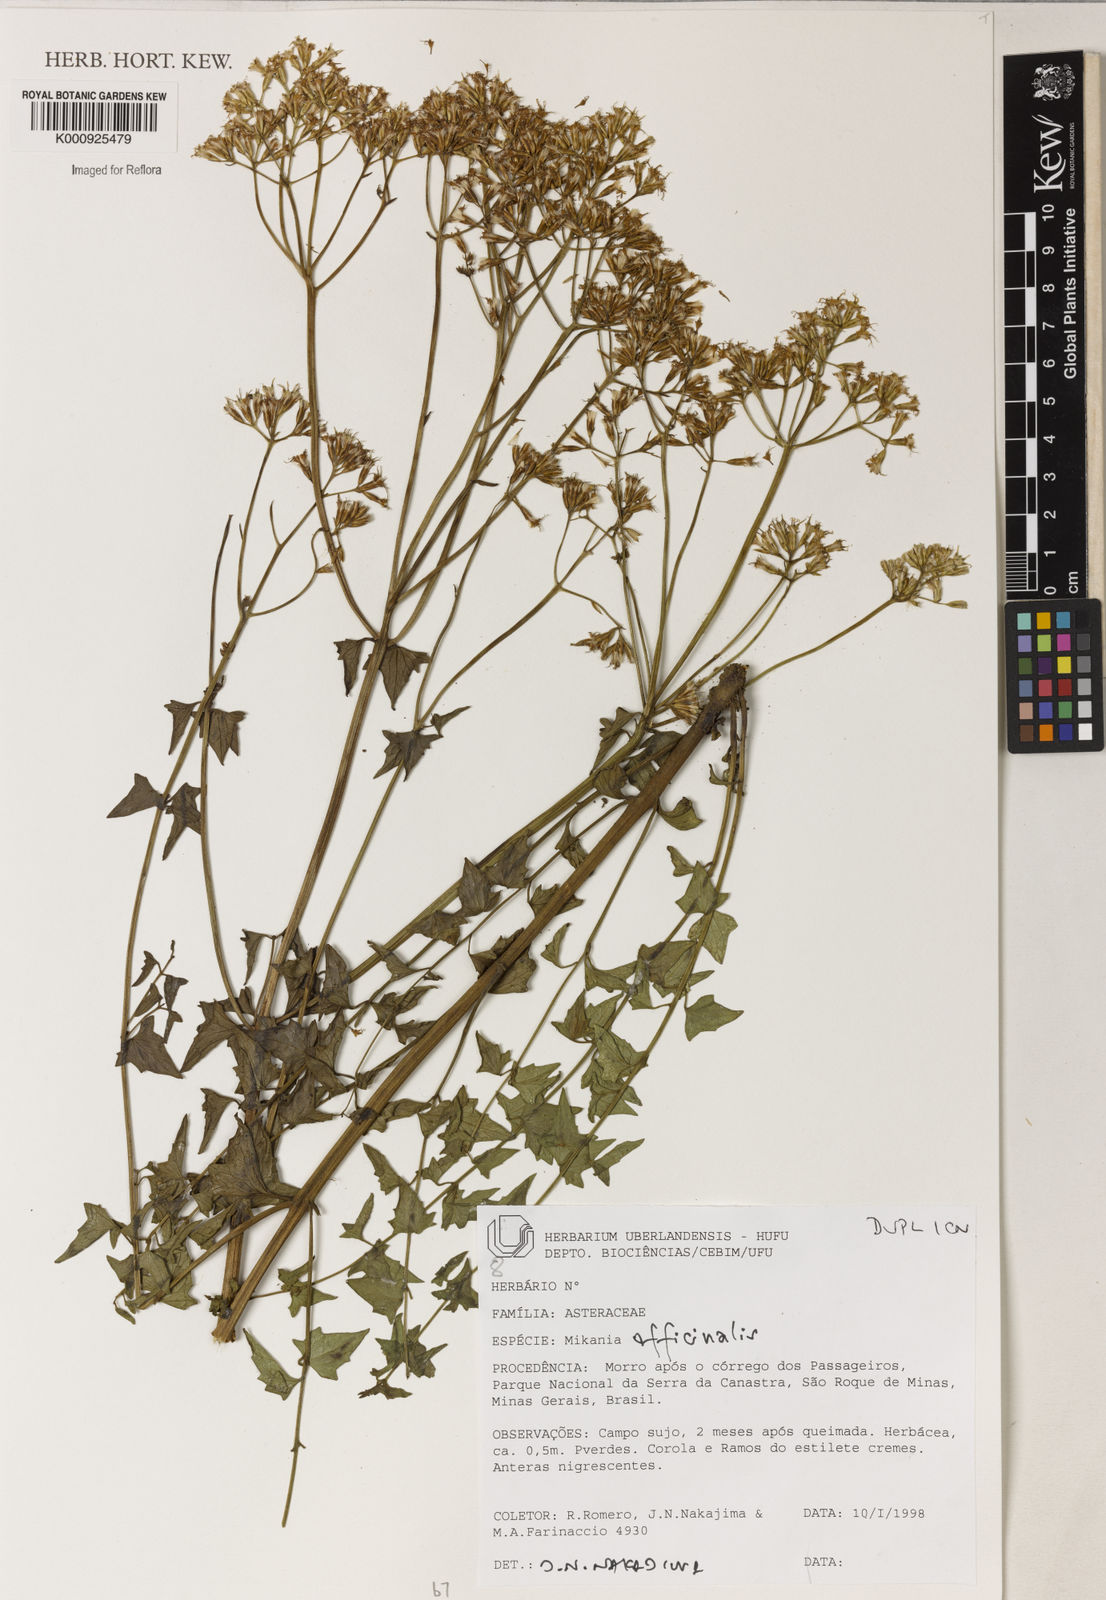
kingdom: Plantae
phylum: Tracheophyta
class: Magnoliopsida
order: Asterales
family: Asteraceae
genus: Mikania
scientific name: Mikania officinalis
